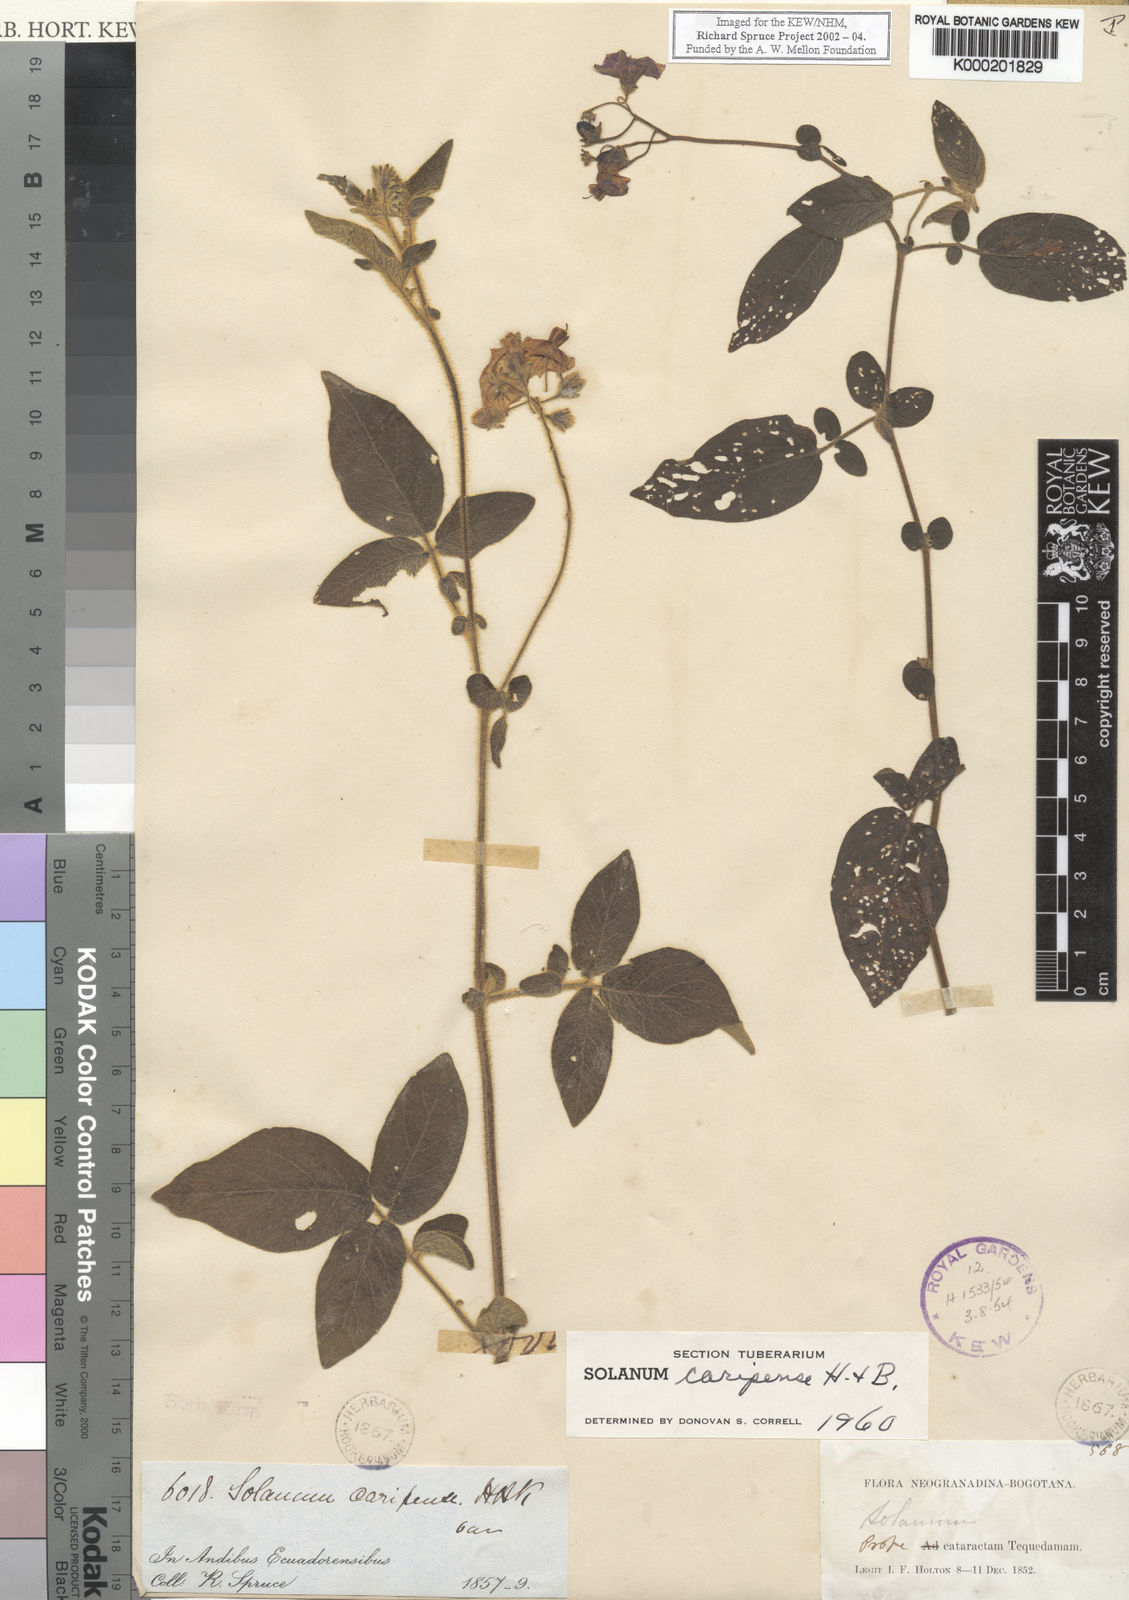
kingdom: Plantae
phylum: Tracheophyta
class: Magnoliopsida
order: Solanales
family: Solanaceae
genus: Solanum
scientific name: Solanum caripense
